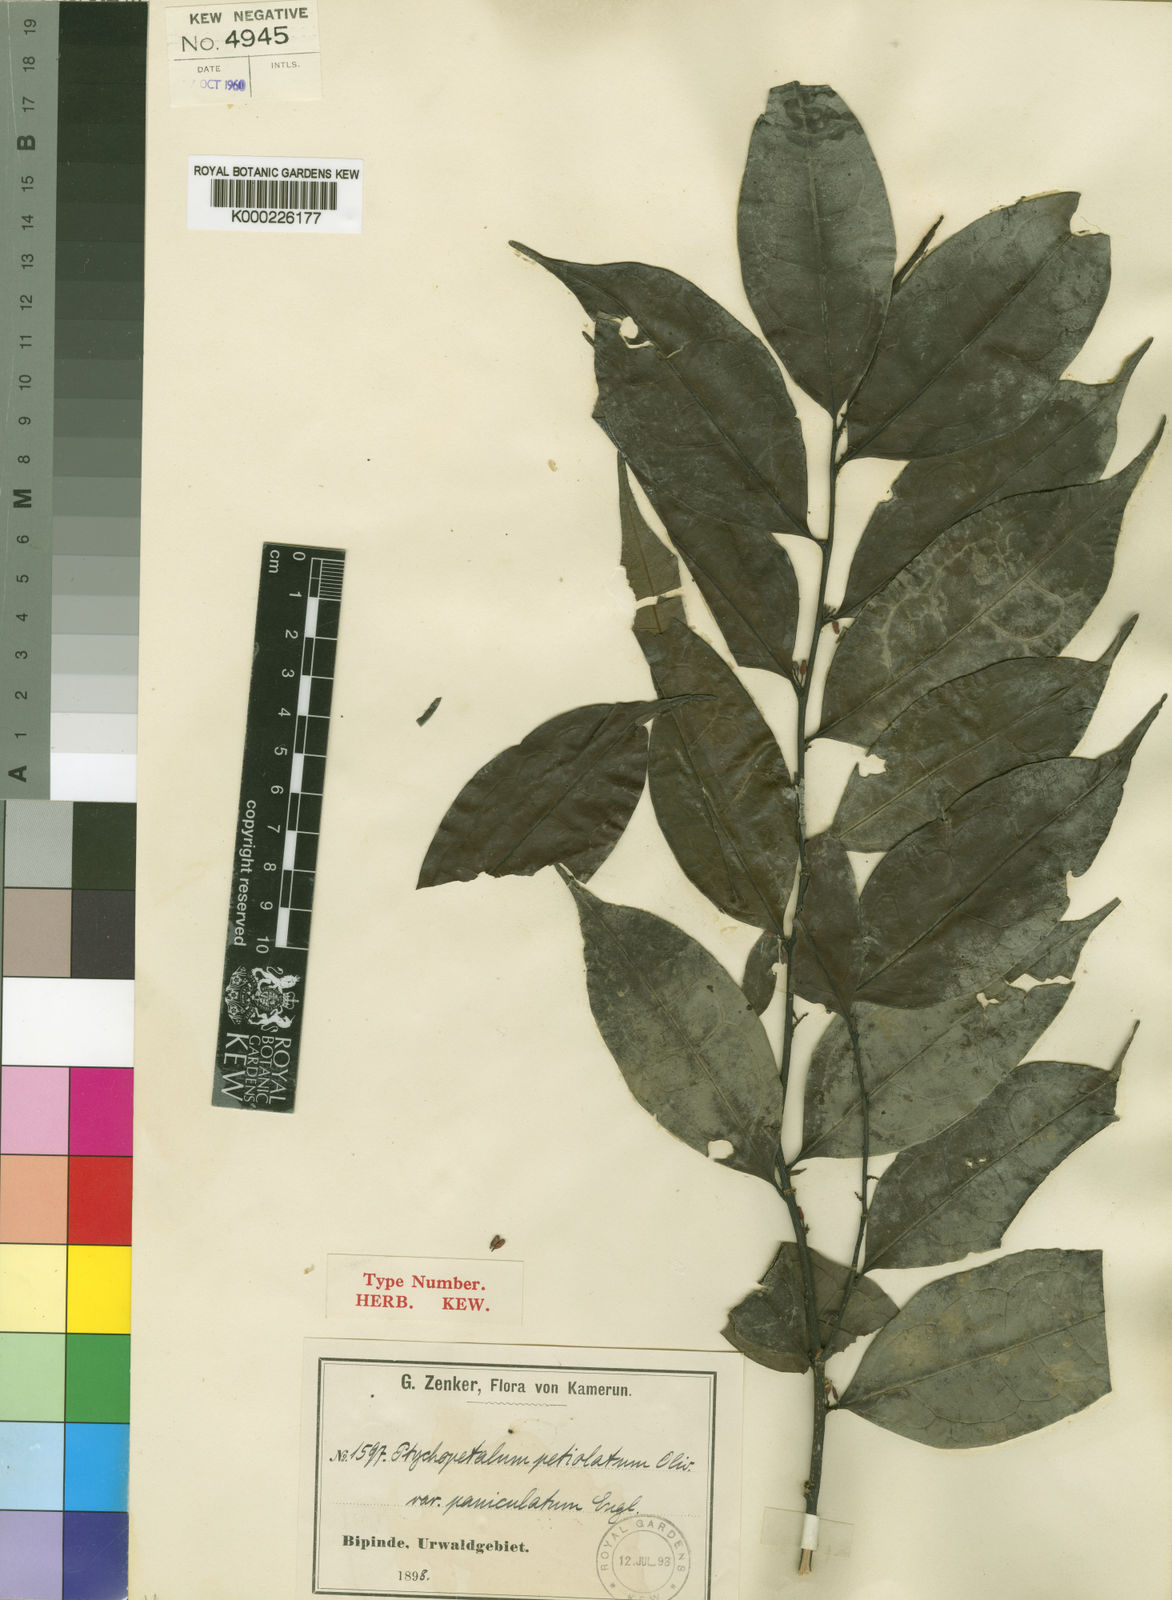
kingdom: Plantae
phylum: Tracheophyta
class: Magnoliopsida
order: Santalales
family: Olacaceae
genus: Ptychopetalum
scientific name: Ptychopetalum petiolatum
